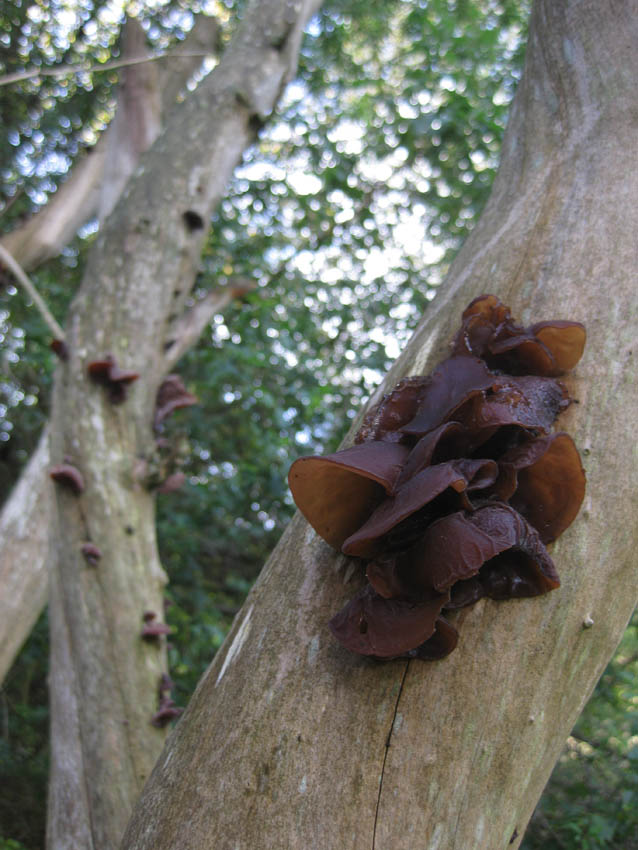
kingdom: Fungi
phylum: Basidiomycota
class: Agaricomycetes
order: Auriculariales
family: Auriculariaceae
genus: Auricularia
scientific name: Auricularia auricula-judae
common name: almindelig judasøre
